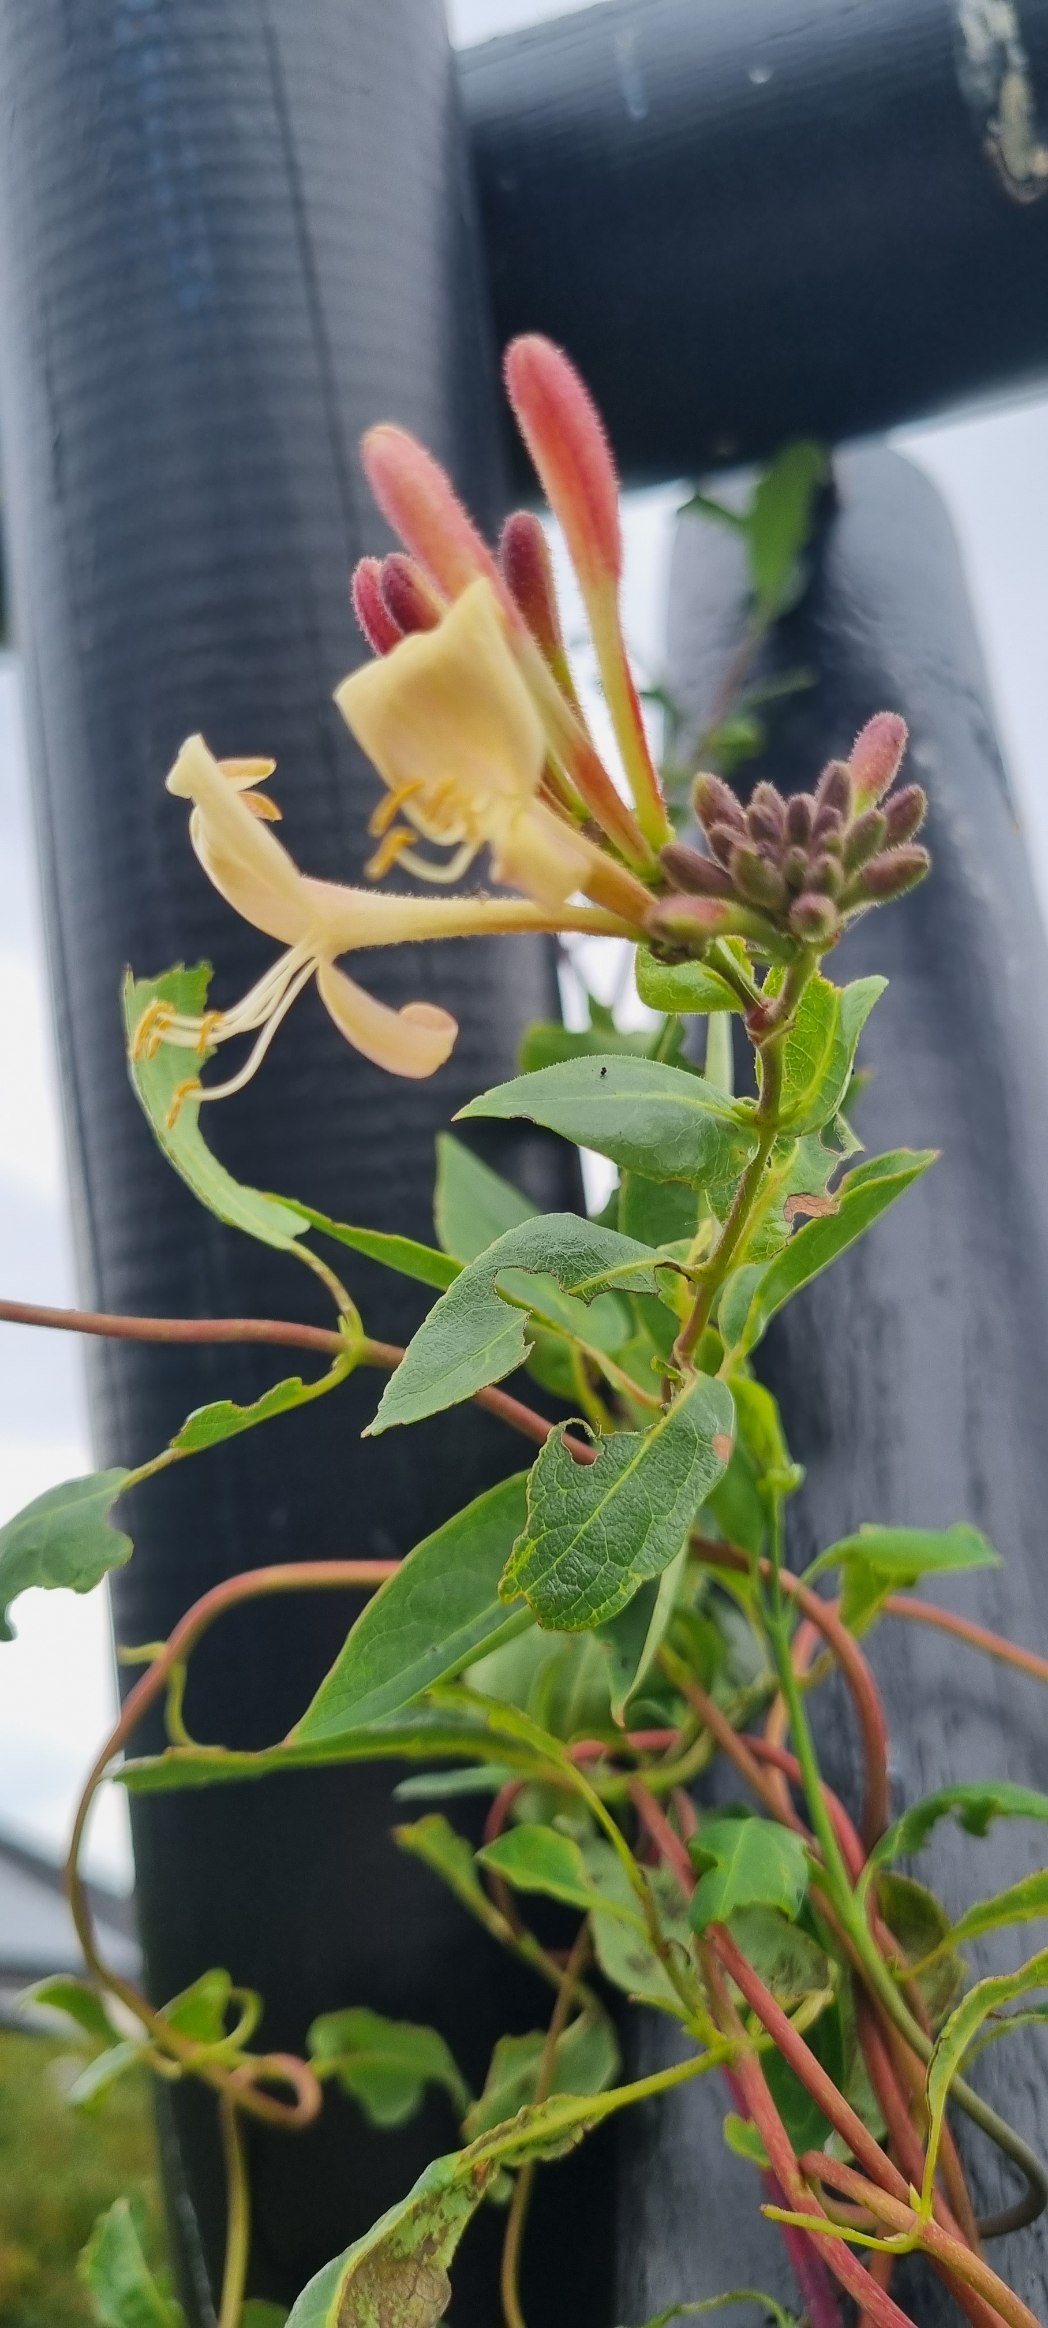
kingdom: Plantae
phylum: Tracheophyta
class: Magnoliopsida
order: Dipsacales
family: Caprifoliaceae
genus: Lonicera
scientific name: Lonicera periclymenum
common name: Almindelig gedeblad
